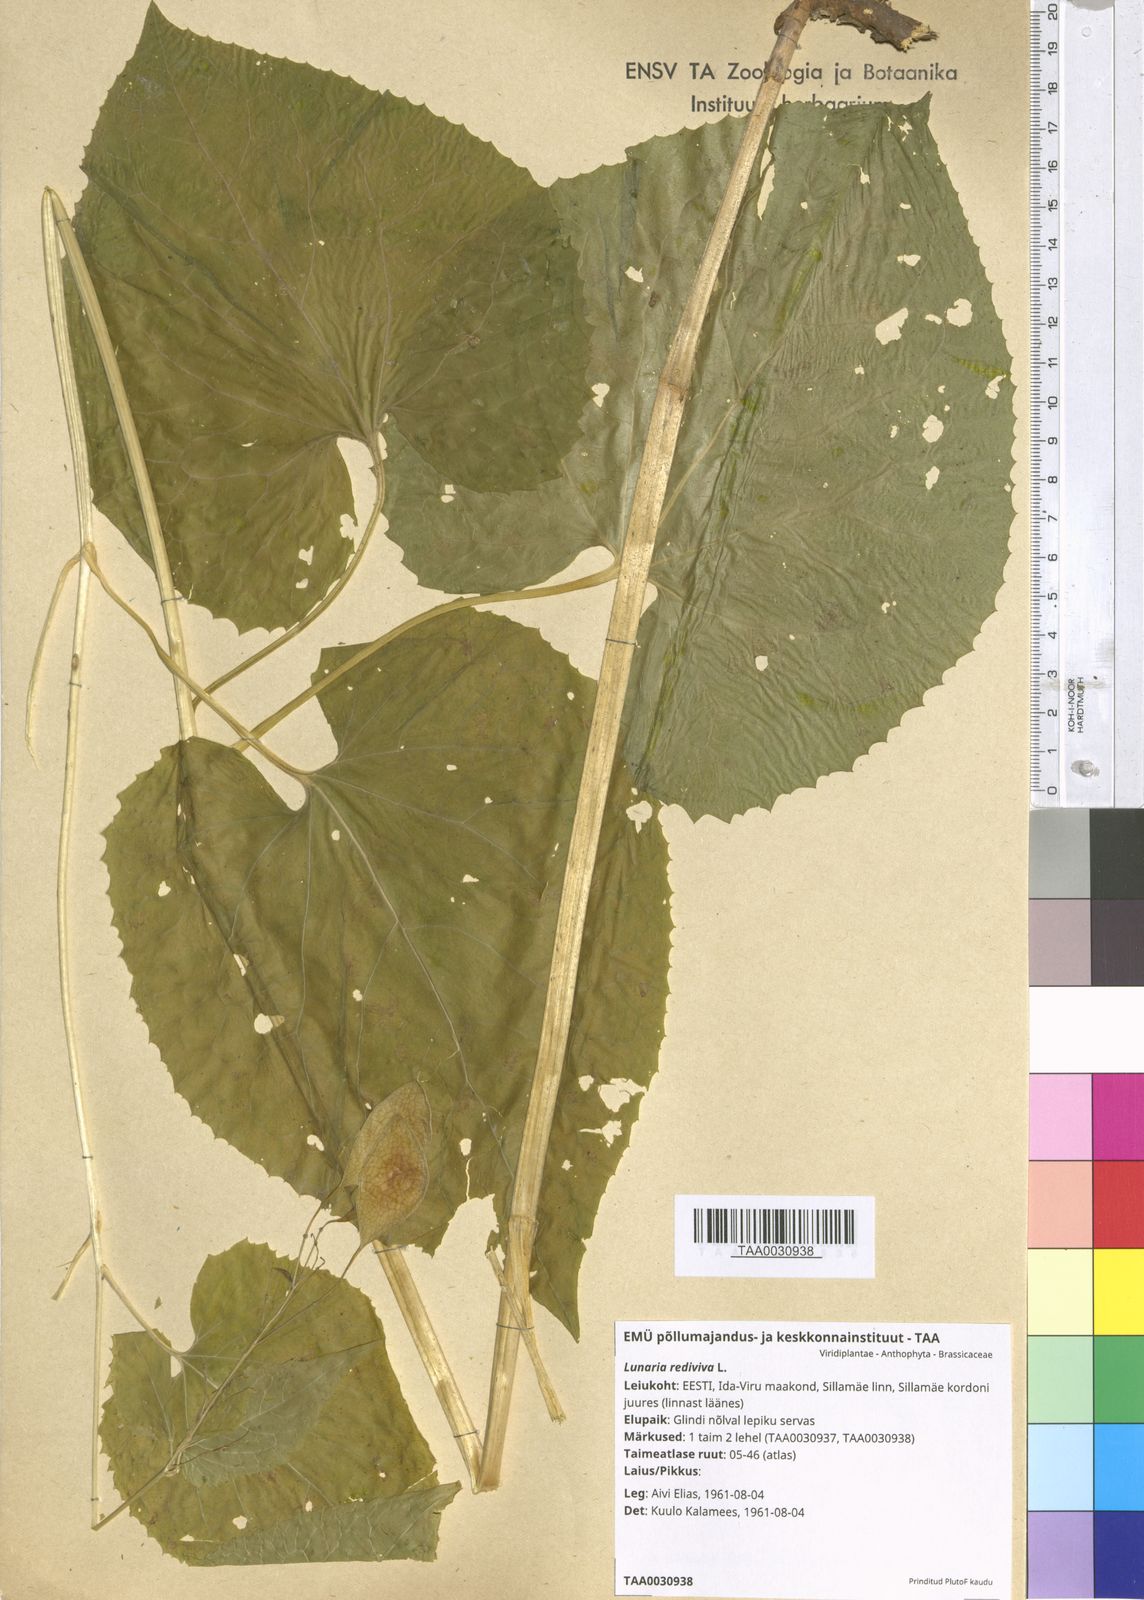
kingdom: Plantae
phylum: Tracheophyta
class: Magnoliopsida
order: Brassicales
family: Brassicaceae
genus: Lunaria
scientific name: Lunaria rediviva
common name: Perennial honesty
